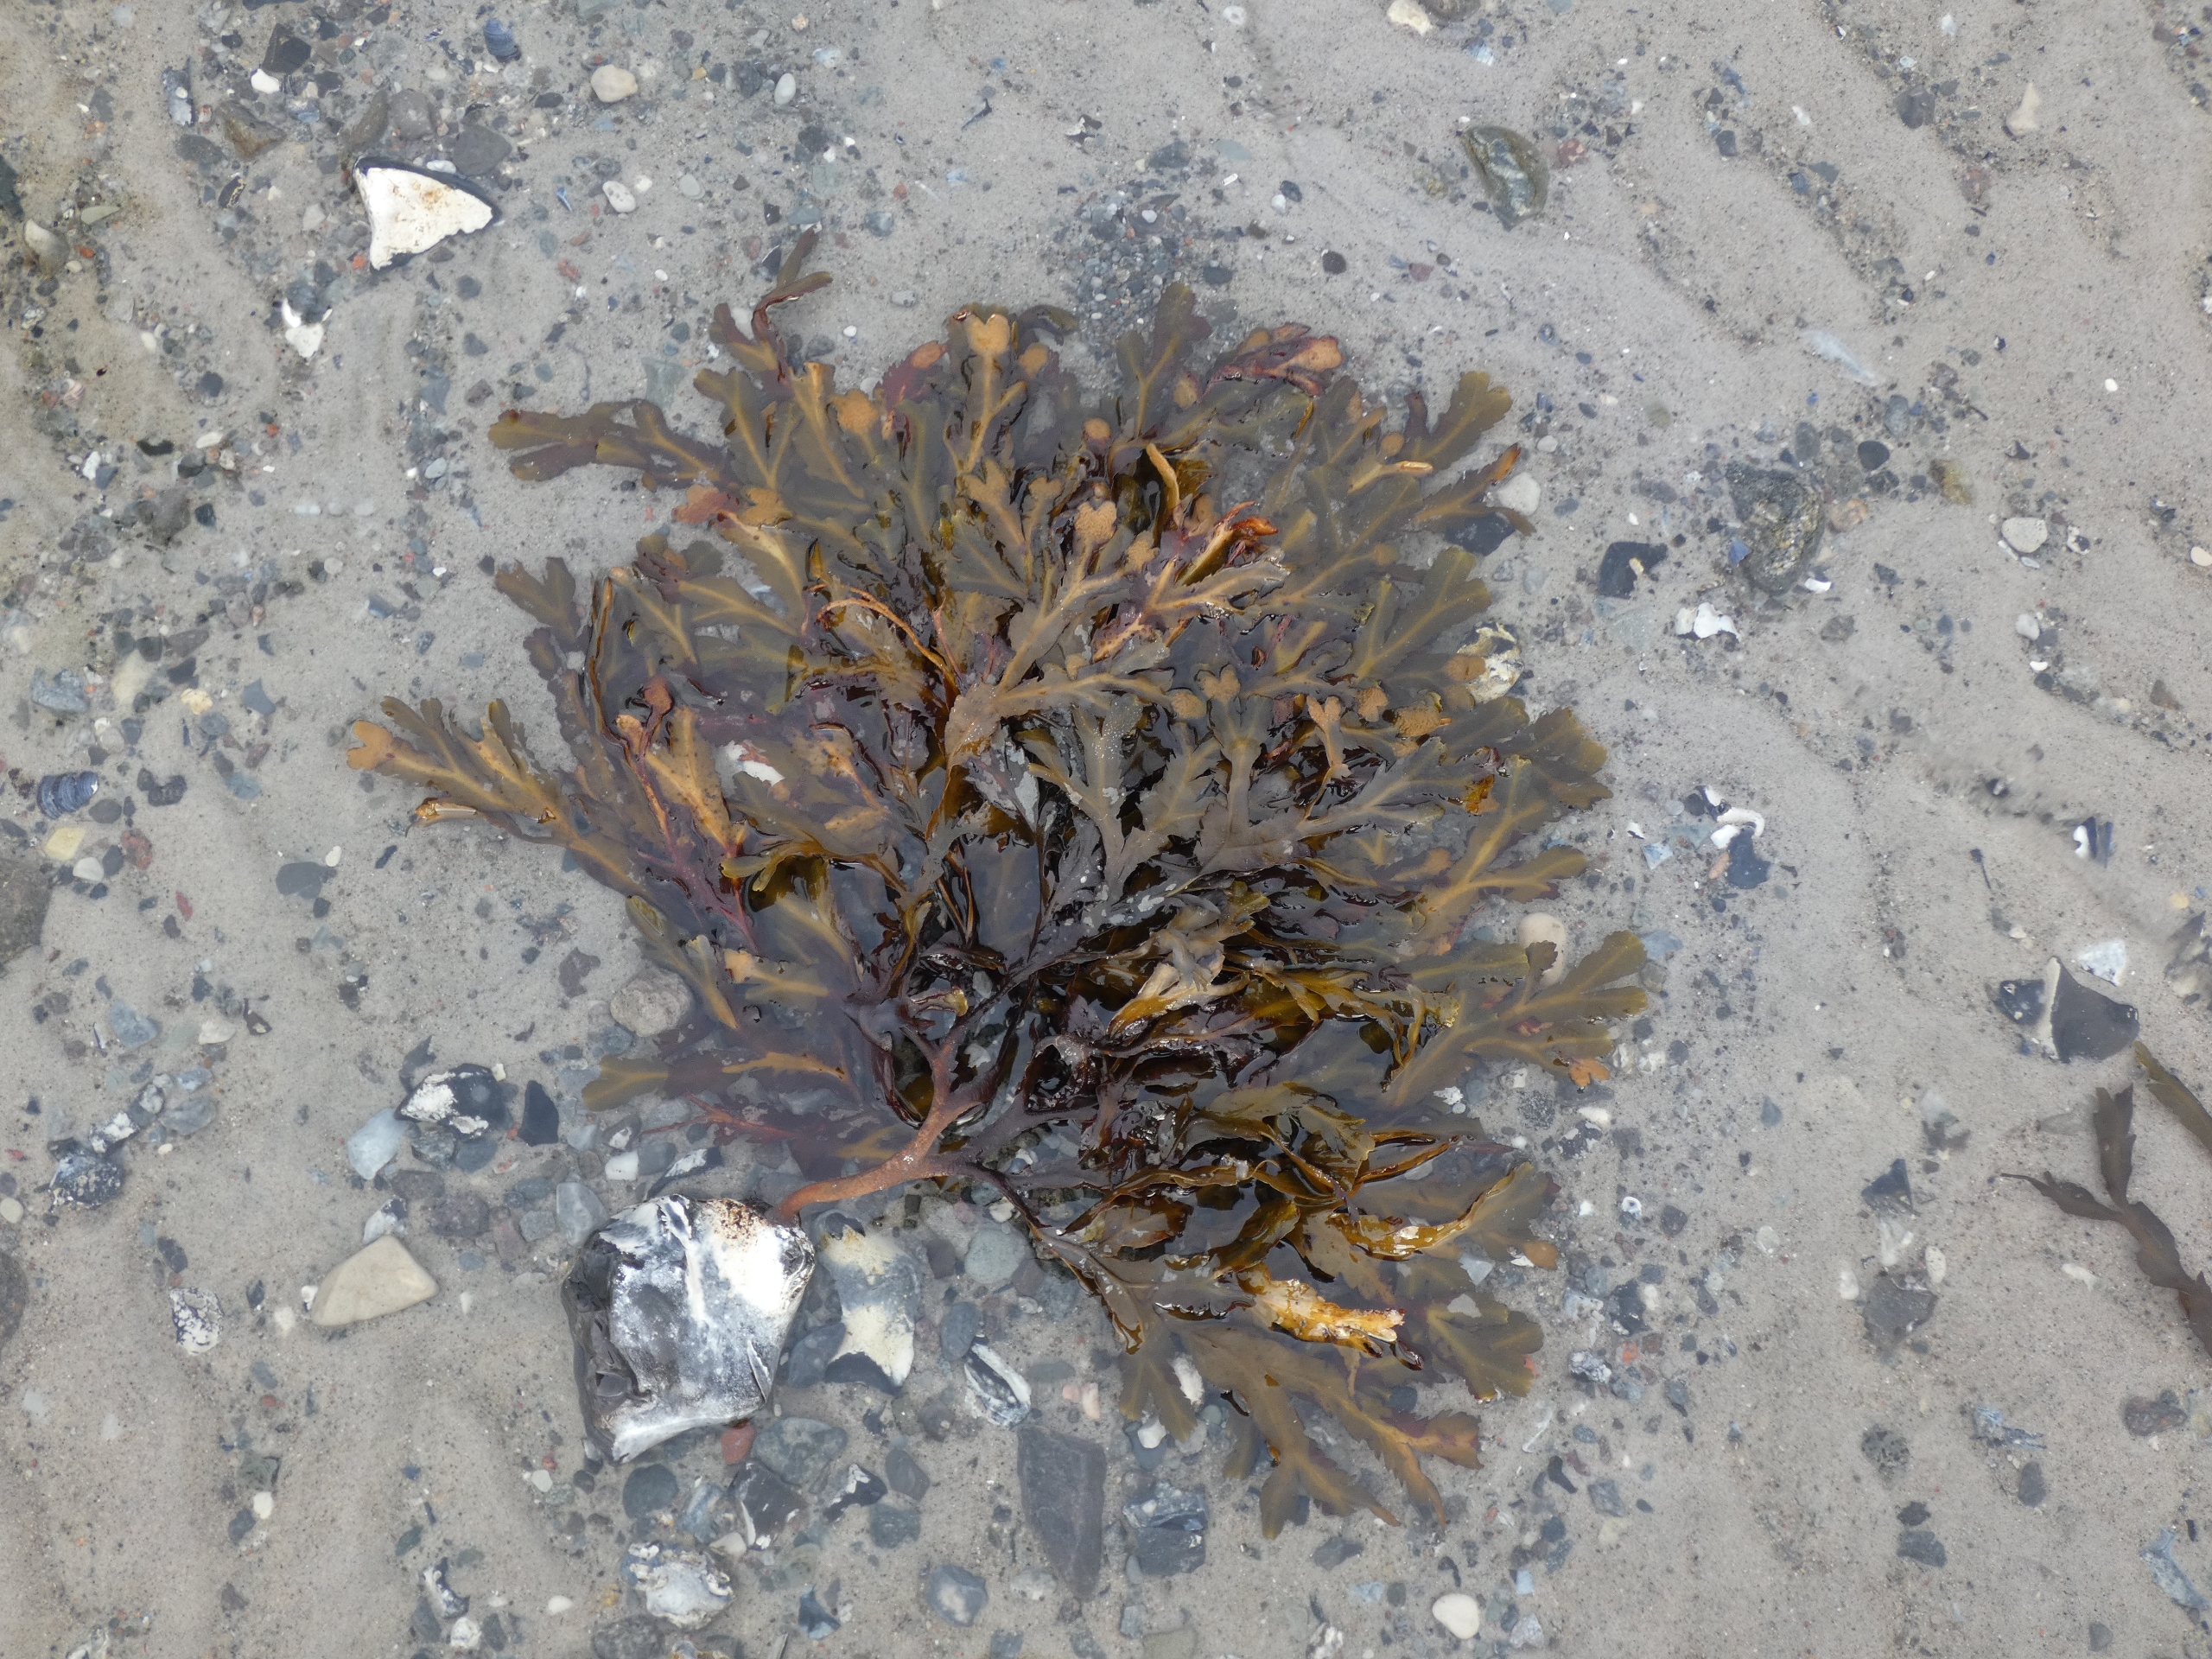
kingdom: Chromista
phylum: Ochrophyta
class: Phaeophyceae
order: Fucales
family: Fucaceae
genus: Fucus
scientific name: Fucus serratus
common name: Savtang
